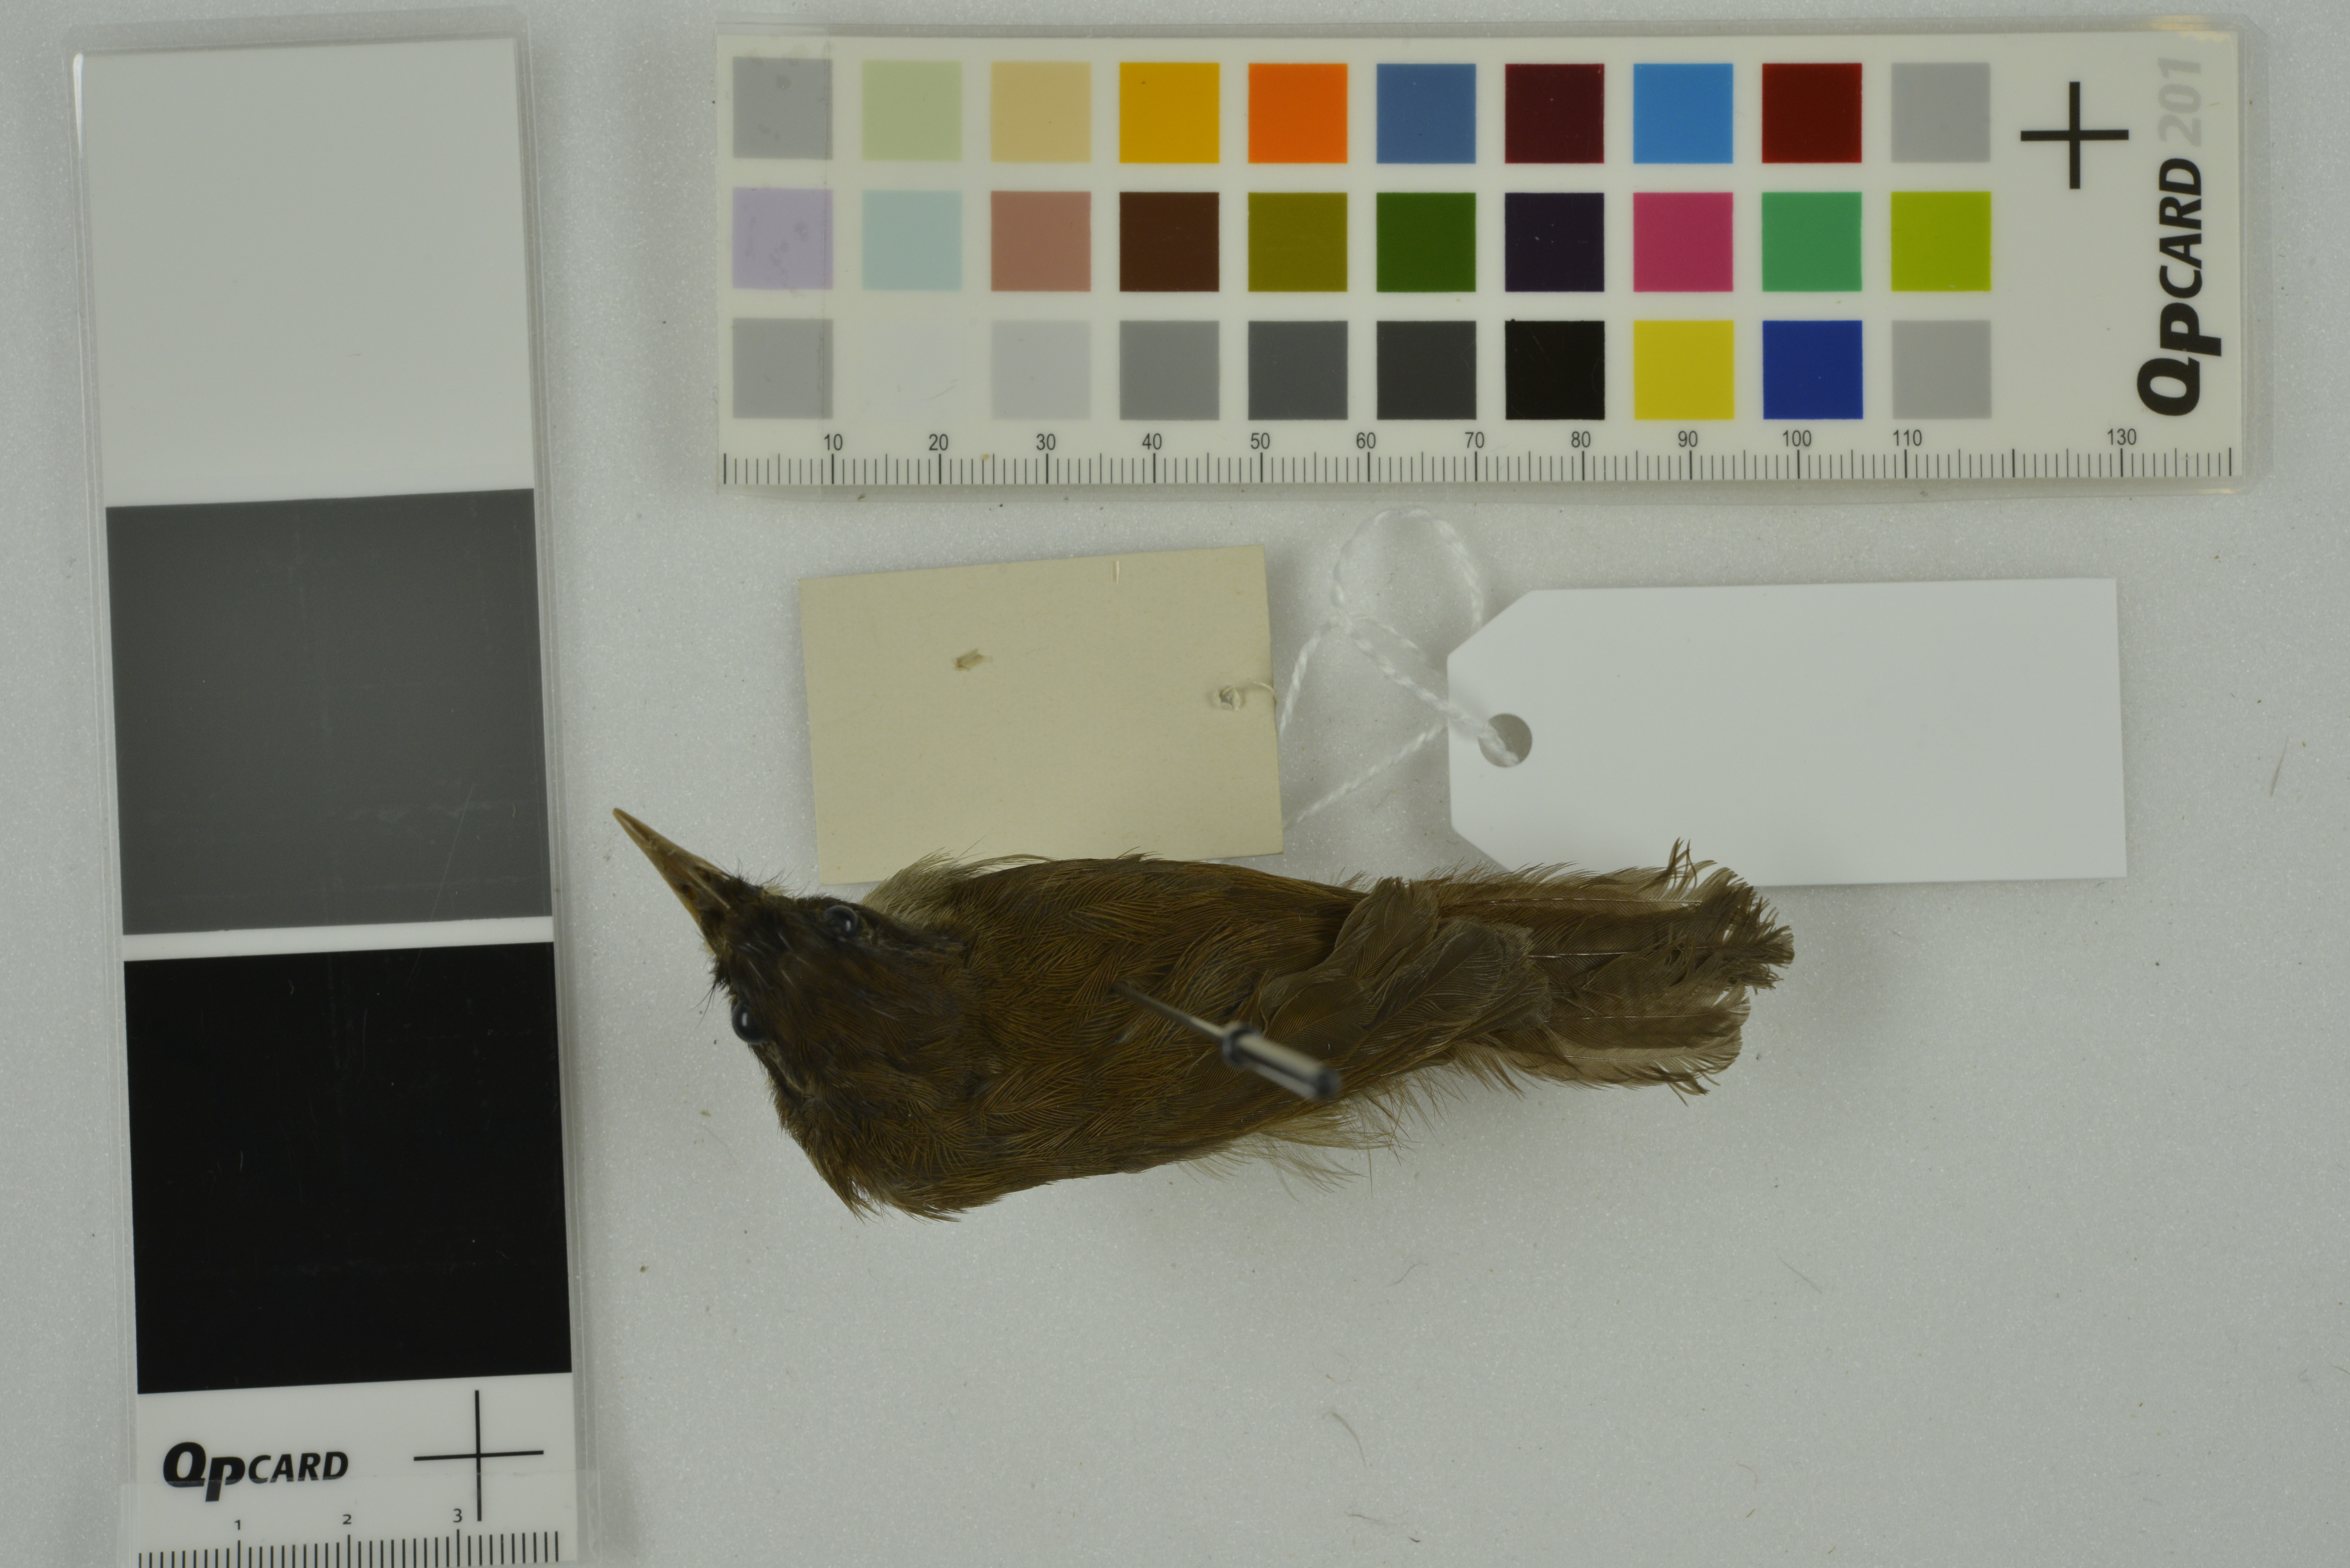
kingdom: Animalia
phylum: Chordata
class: Aves
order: Passeriformes
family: Timaliidae
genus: Rhopocichla
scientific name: Rhopocichla atriceps
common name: Dark-fronted babbler
